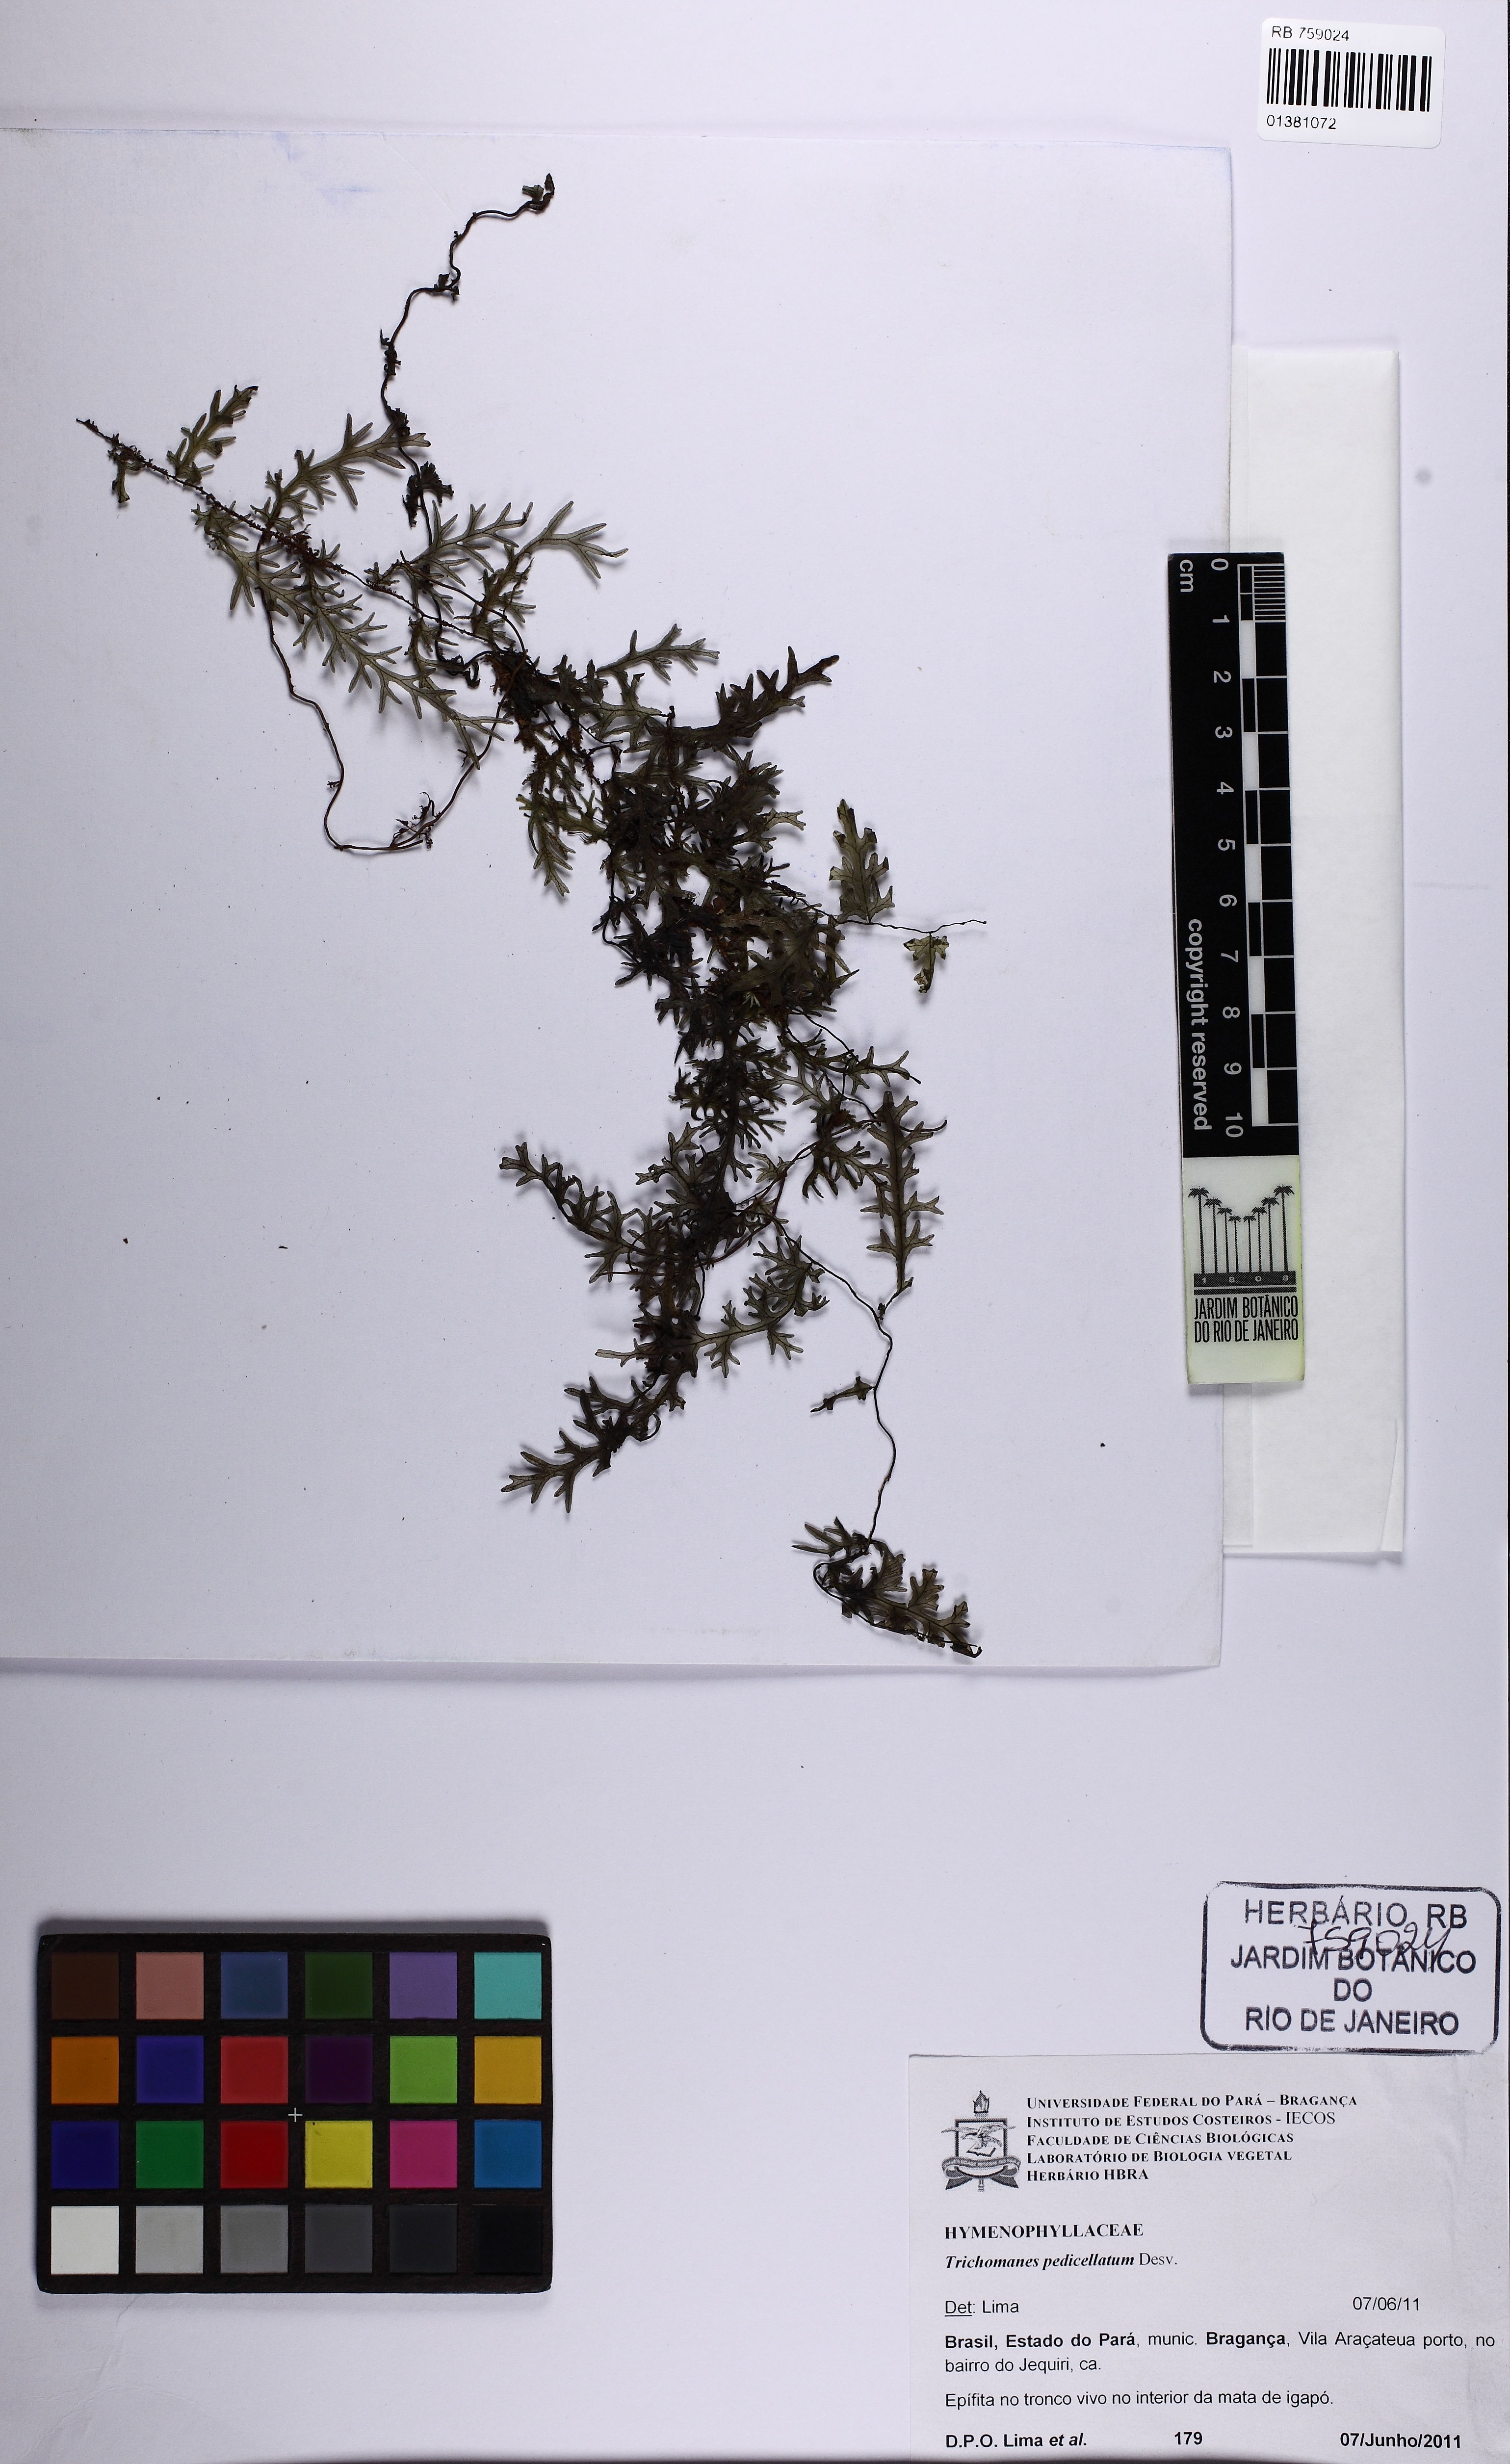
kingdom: Plantae
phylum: Tracheophyta
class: Polypodiopsida
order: Hymenophyllales
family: Hymenophyllaceae
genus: Trichomanes
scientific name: Trichomanes pedicellatum
